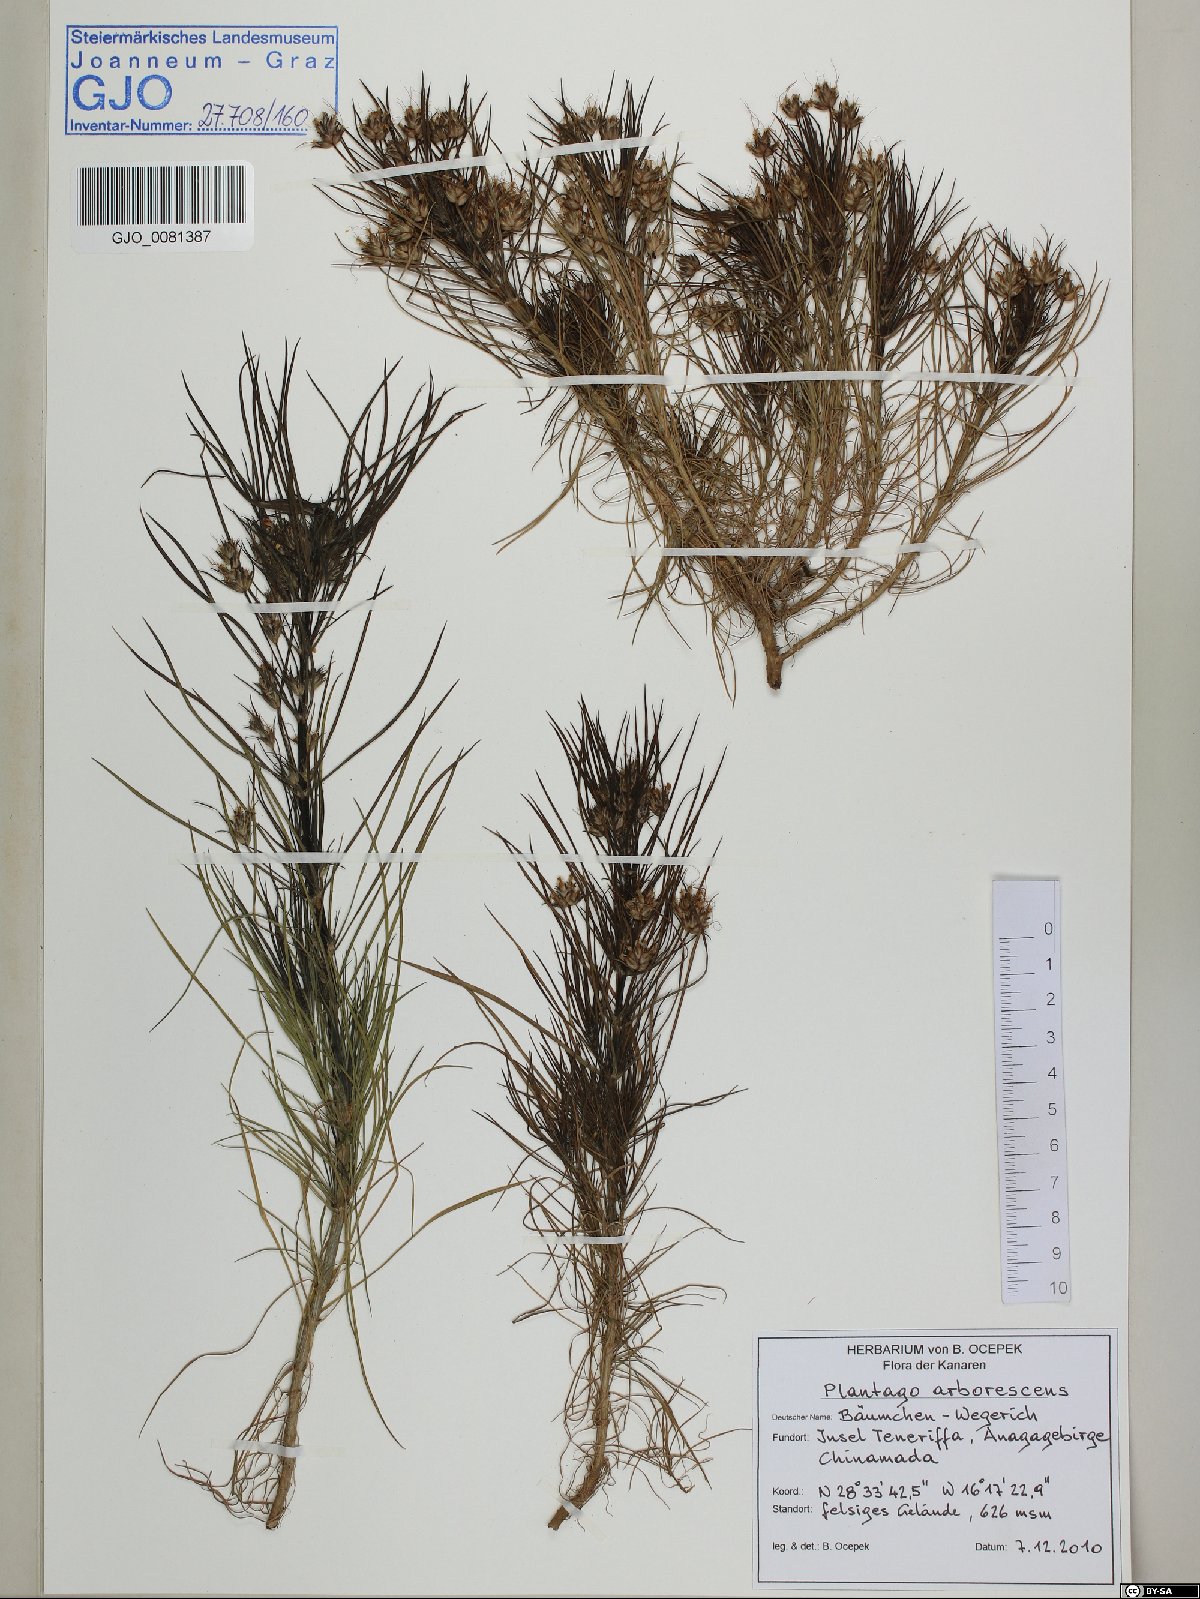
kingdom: Plantae
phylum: Tracheophyta
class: Magnoliopsida
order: Lamiales
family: Plantaginaceae
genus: Plantago
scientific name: Plantago arborescens
